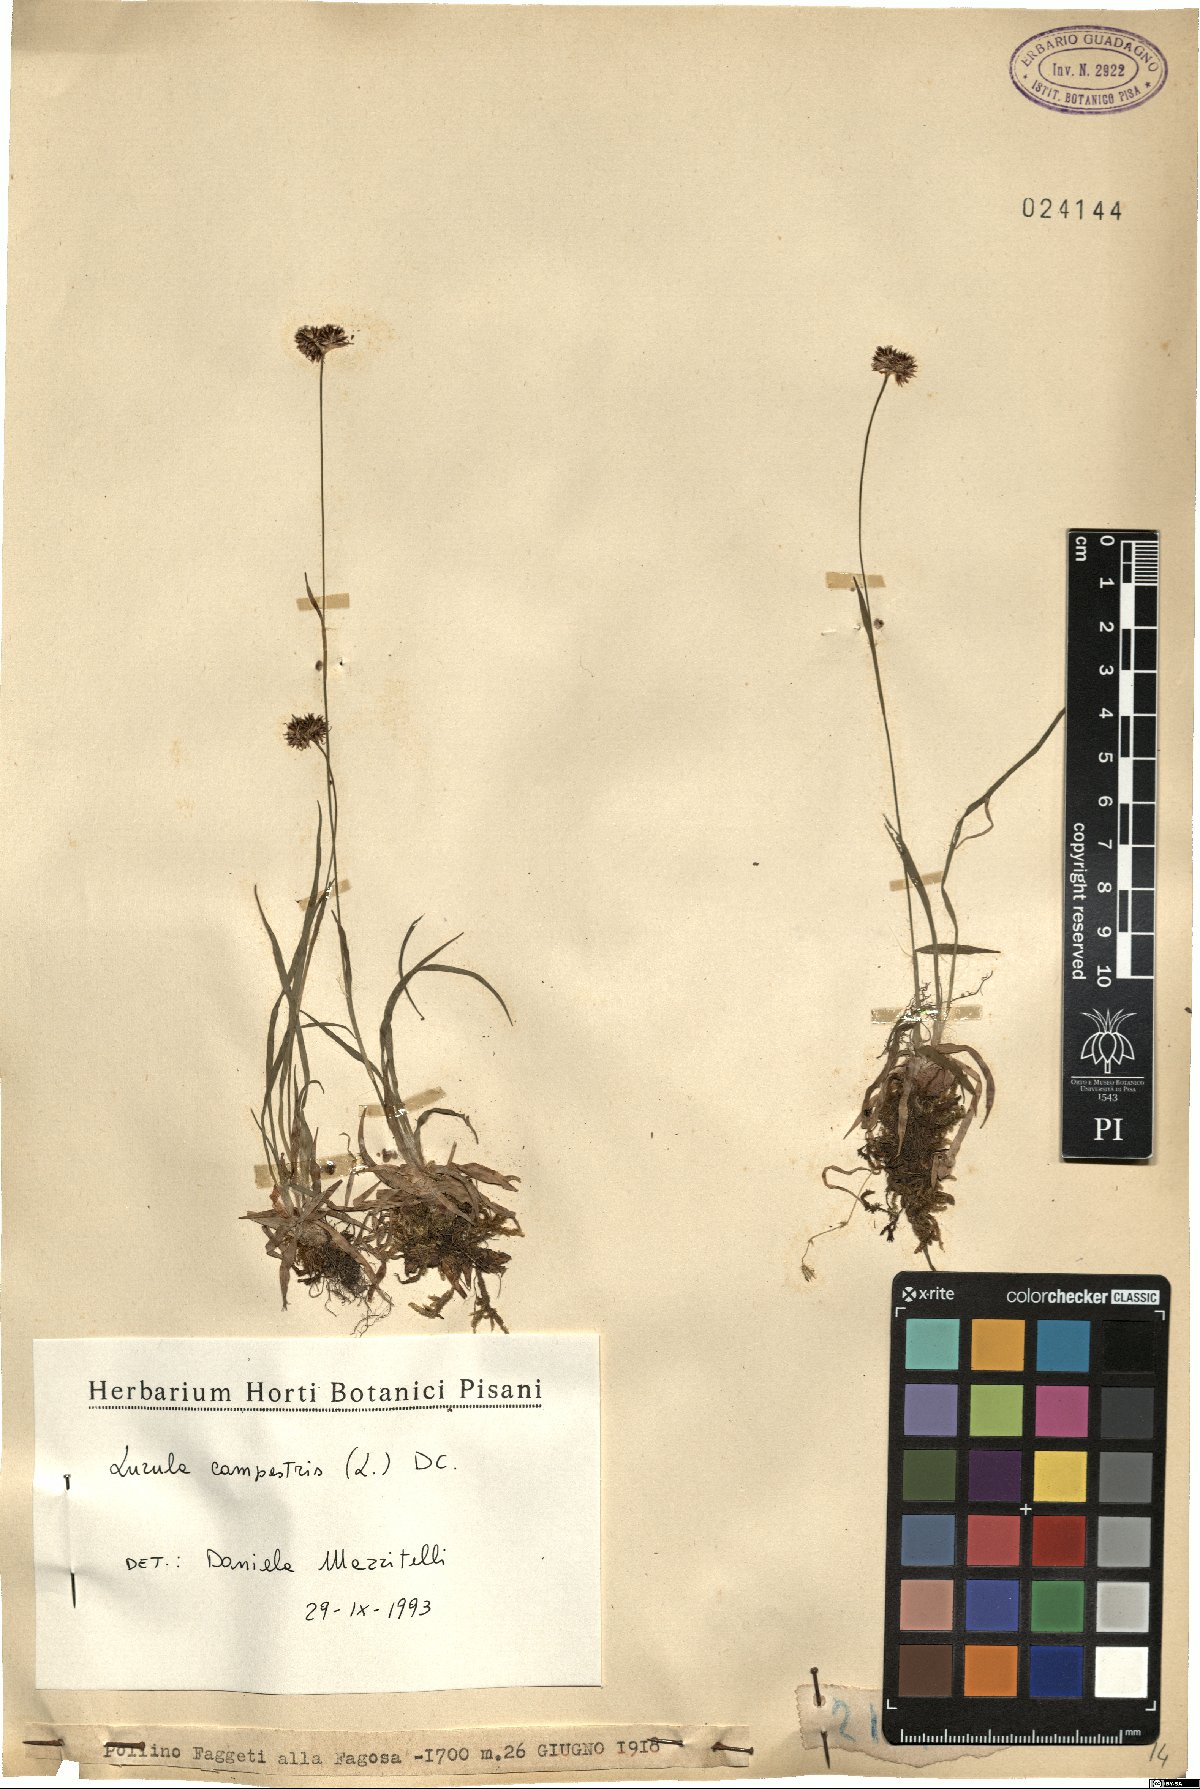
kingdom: Plantae
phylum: Tracheophyta
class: Liliopsida
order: Poales
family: Juncaceae
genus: Luzula
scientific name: Luzula campestris
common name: Field wood-rush
